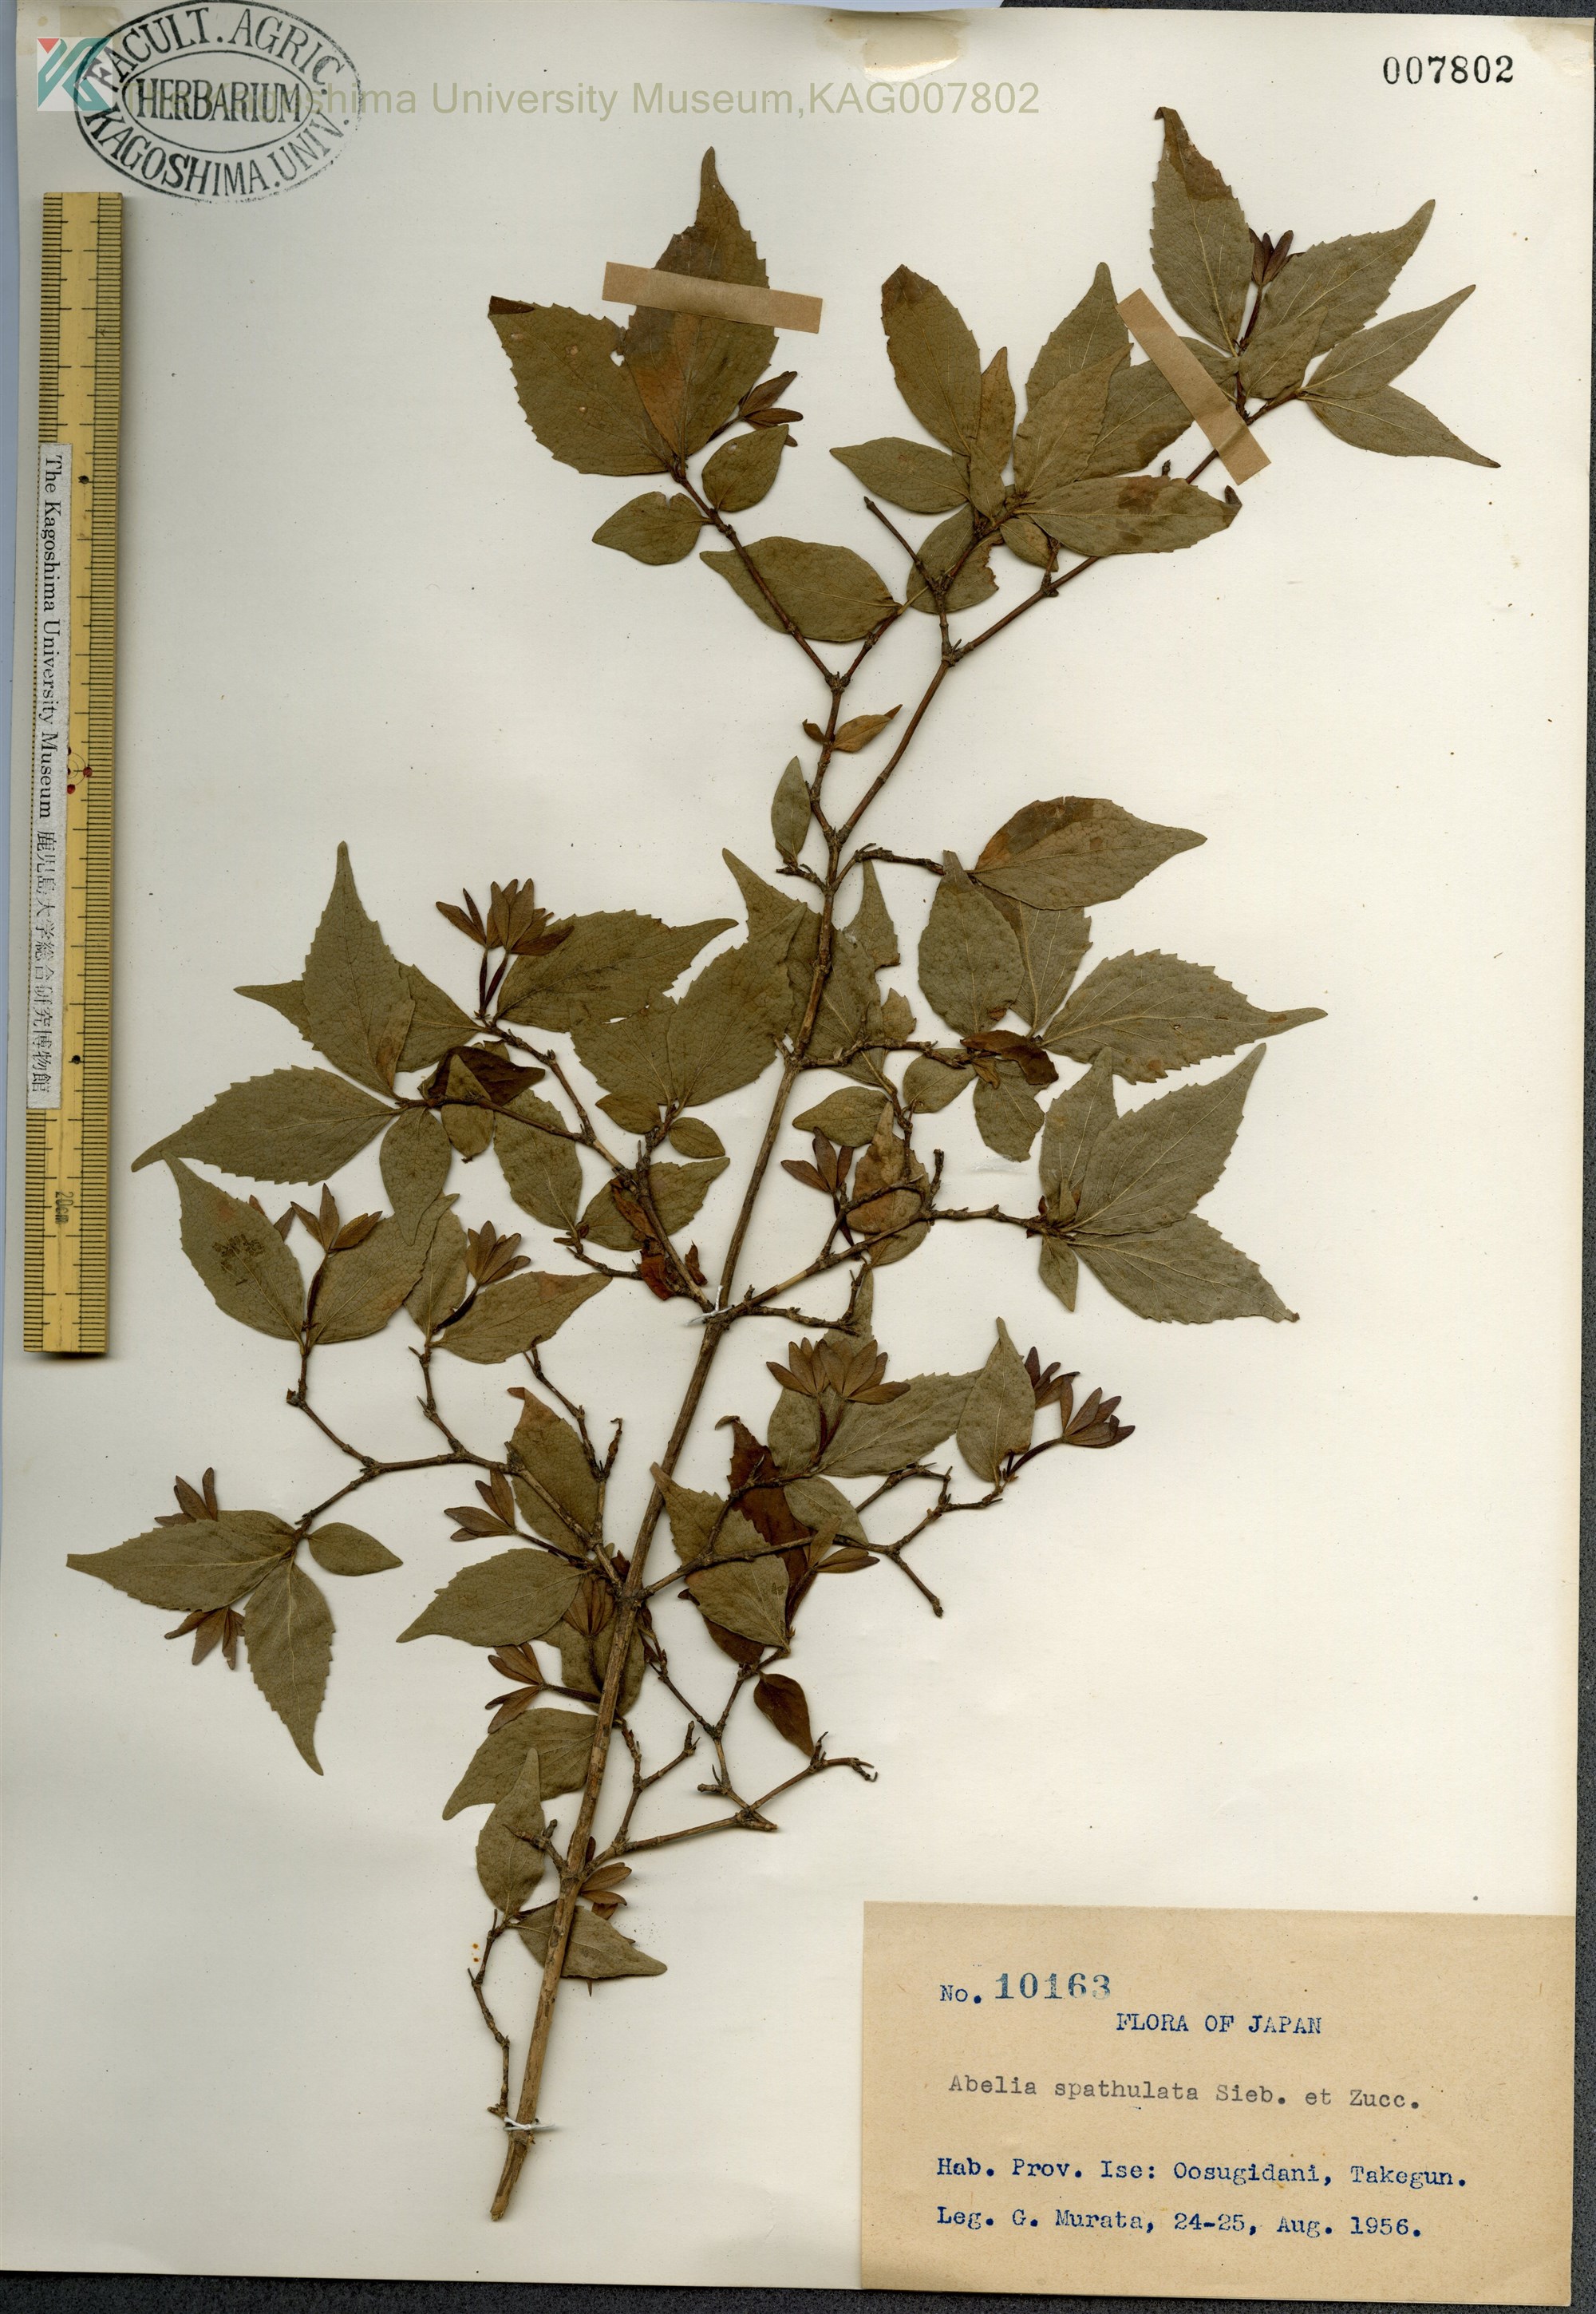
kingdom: Plantae
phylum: Tracheophyta
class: Magnoliopsida
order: Dipsacales
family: Caprifoliaceae
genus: Diabelia
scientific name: Diabelia spathulata
